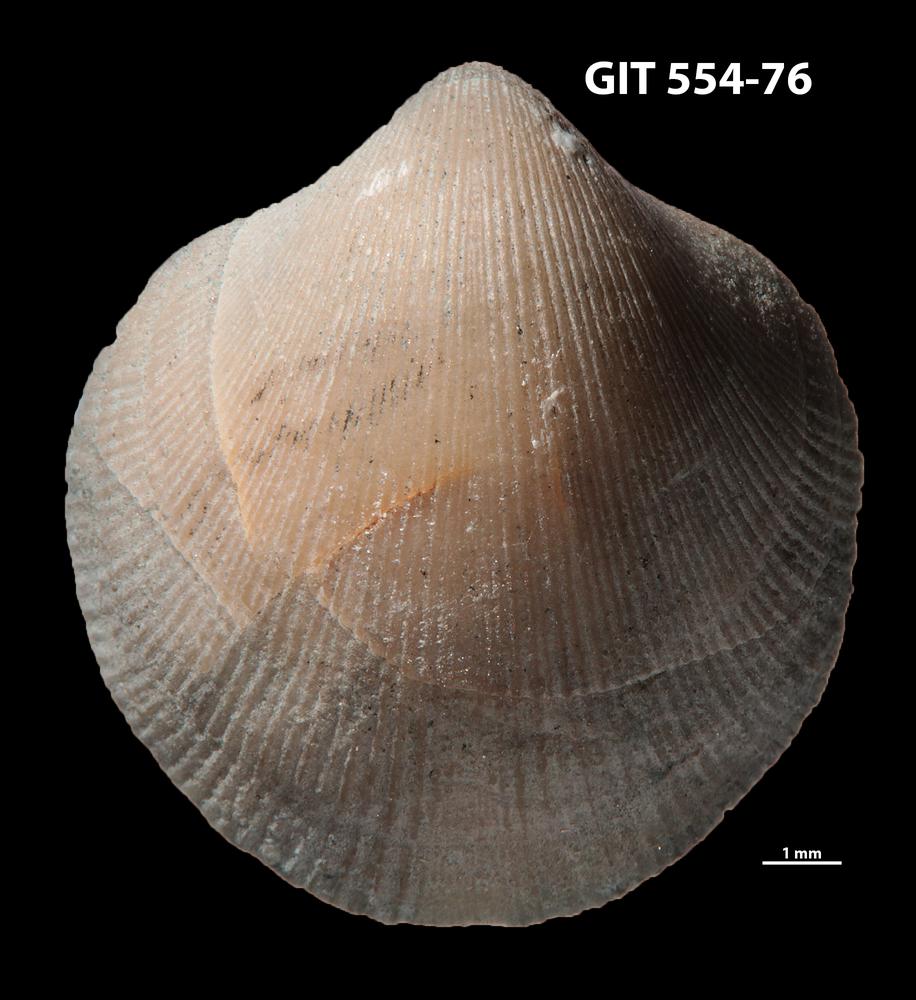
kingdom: Animalia
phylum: Brachiopoda
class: Rhynchonellata
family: Dalmanellidae
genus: Visbyella
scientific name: Visbyella pygmae
